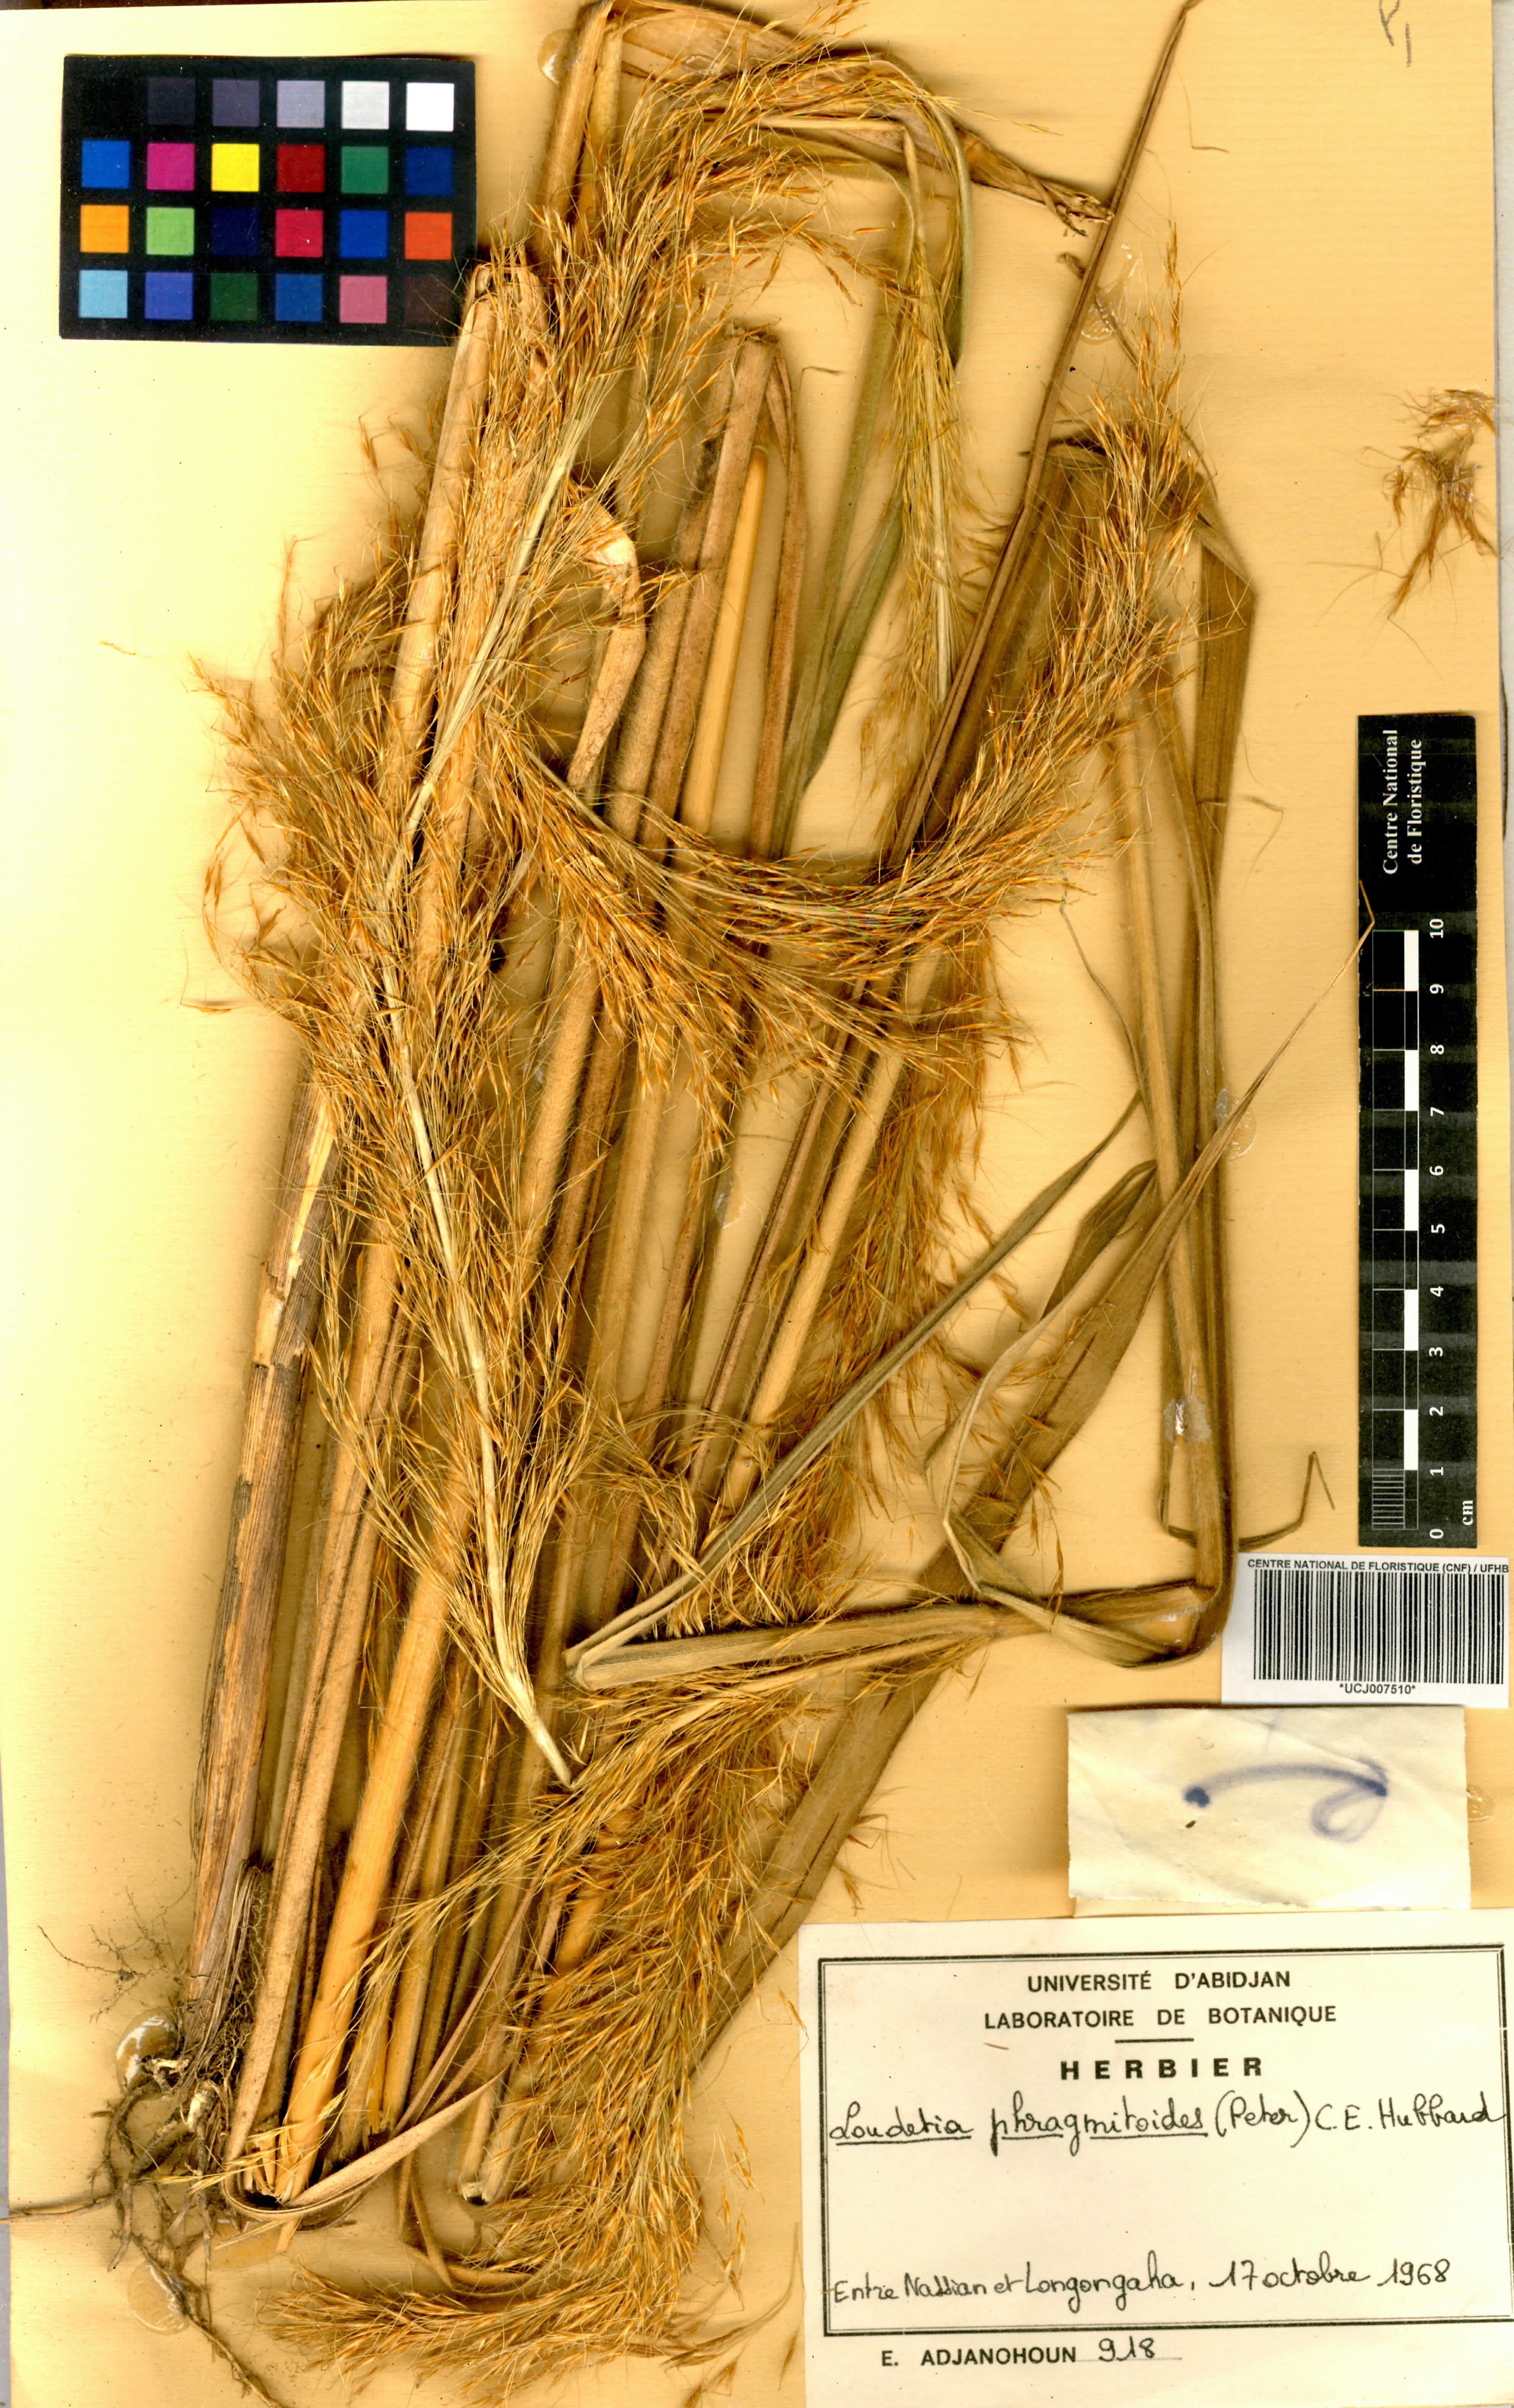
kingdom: Plantae
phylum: Tracheophyta
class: Liliopsida
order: Poales
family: Poaceae
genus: Loudetia
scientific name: Loudetia phragmitoides
